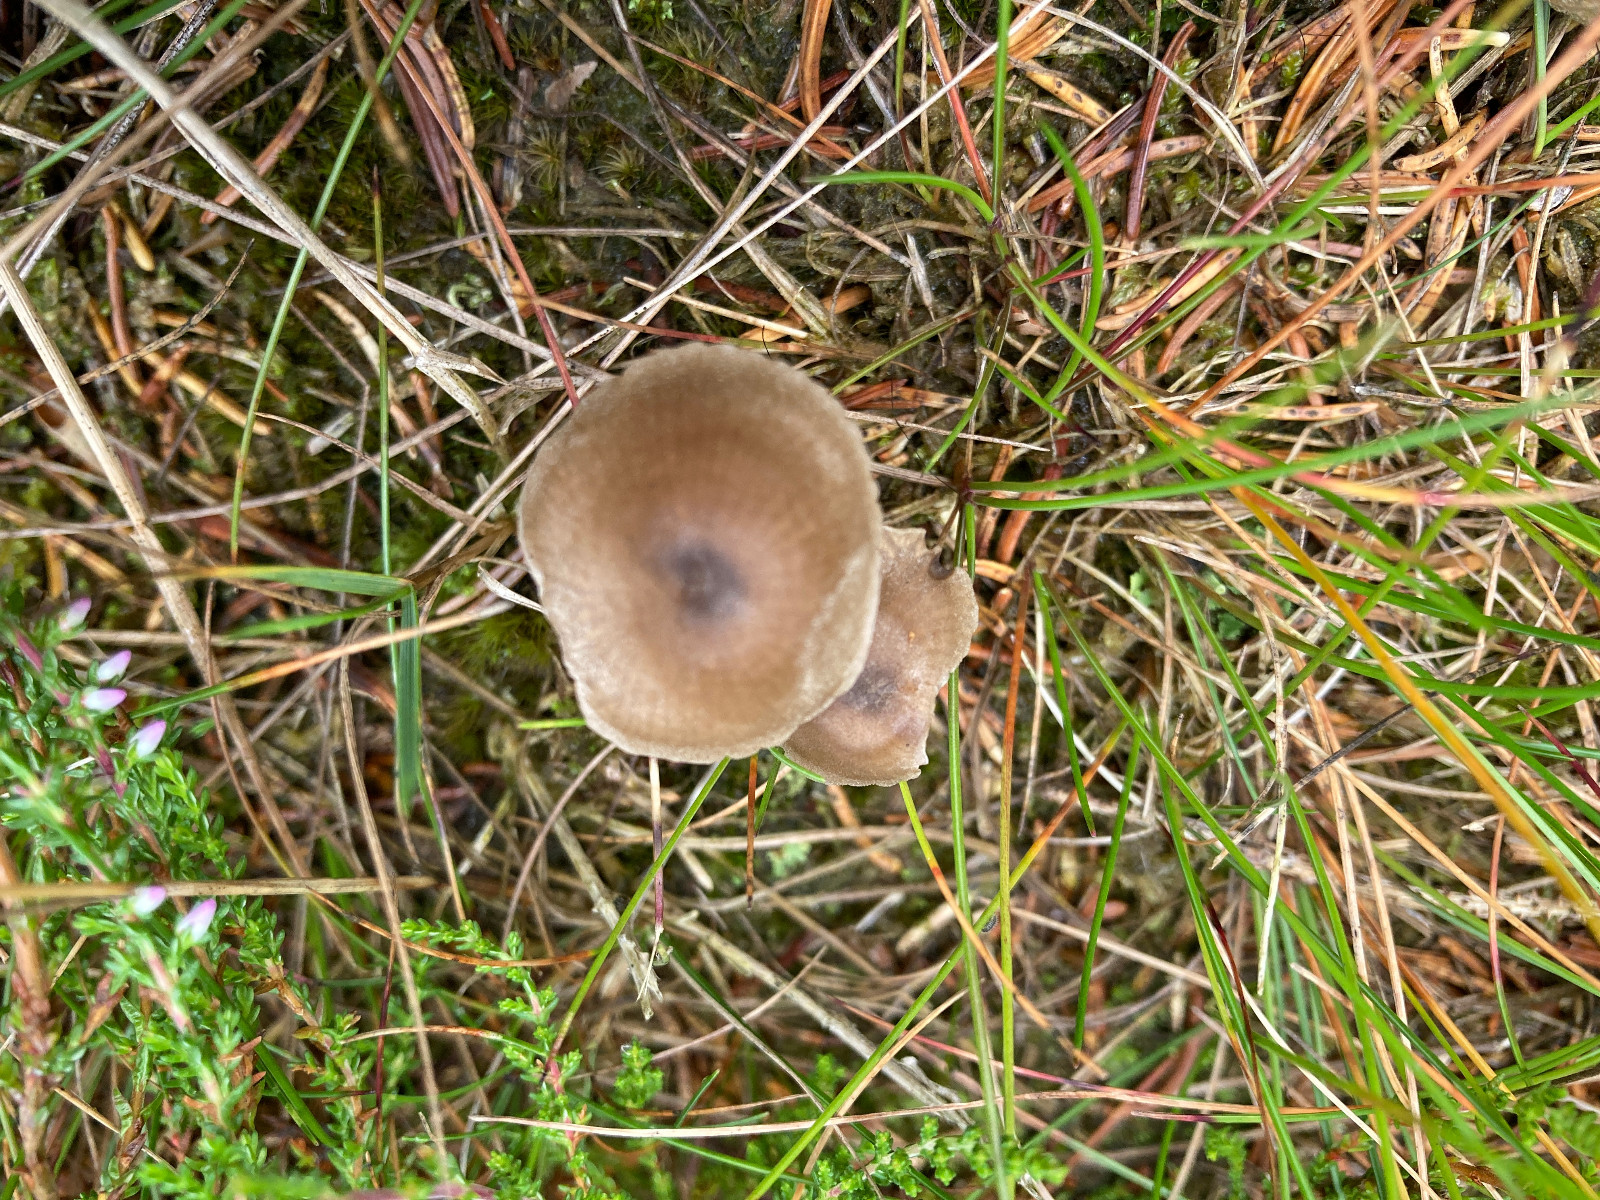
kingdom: Fungi
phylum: Basidiomycota
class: Agaricomycetes
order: Agaricales
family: Entolomataceae
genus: Entoloma
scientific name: Entoloma
